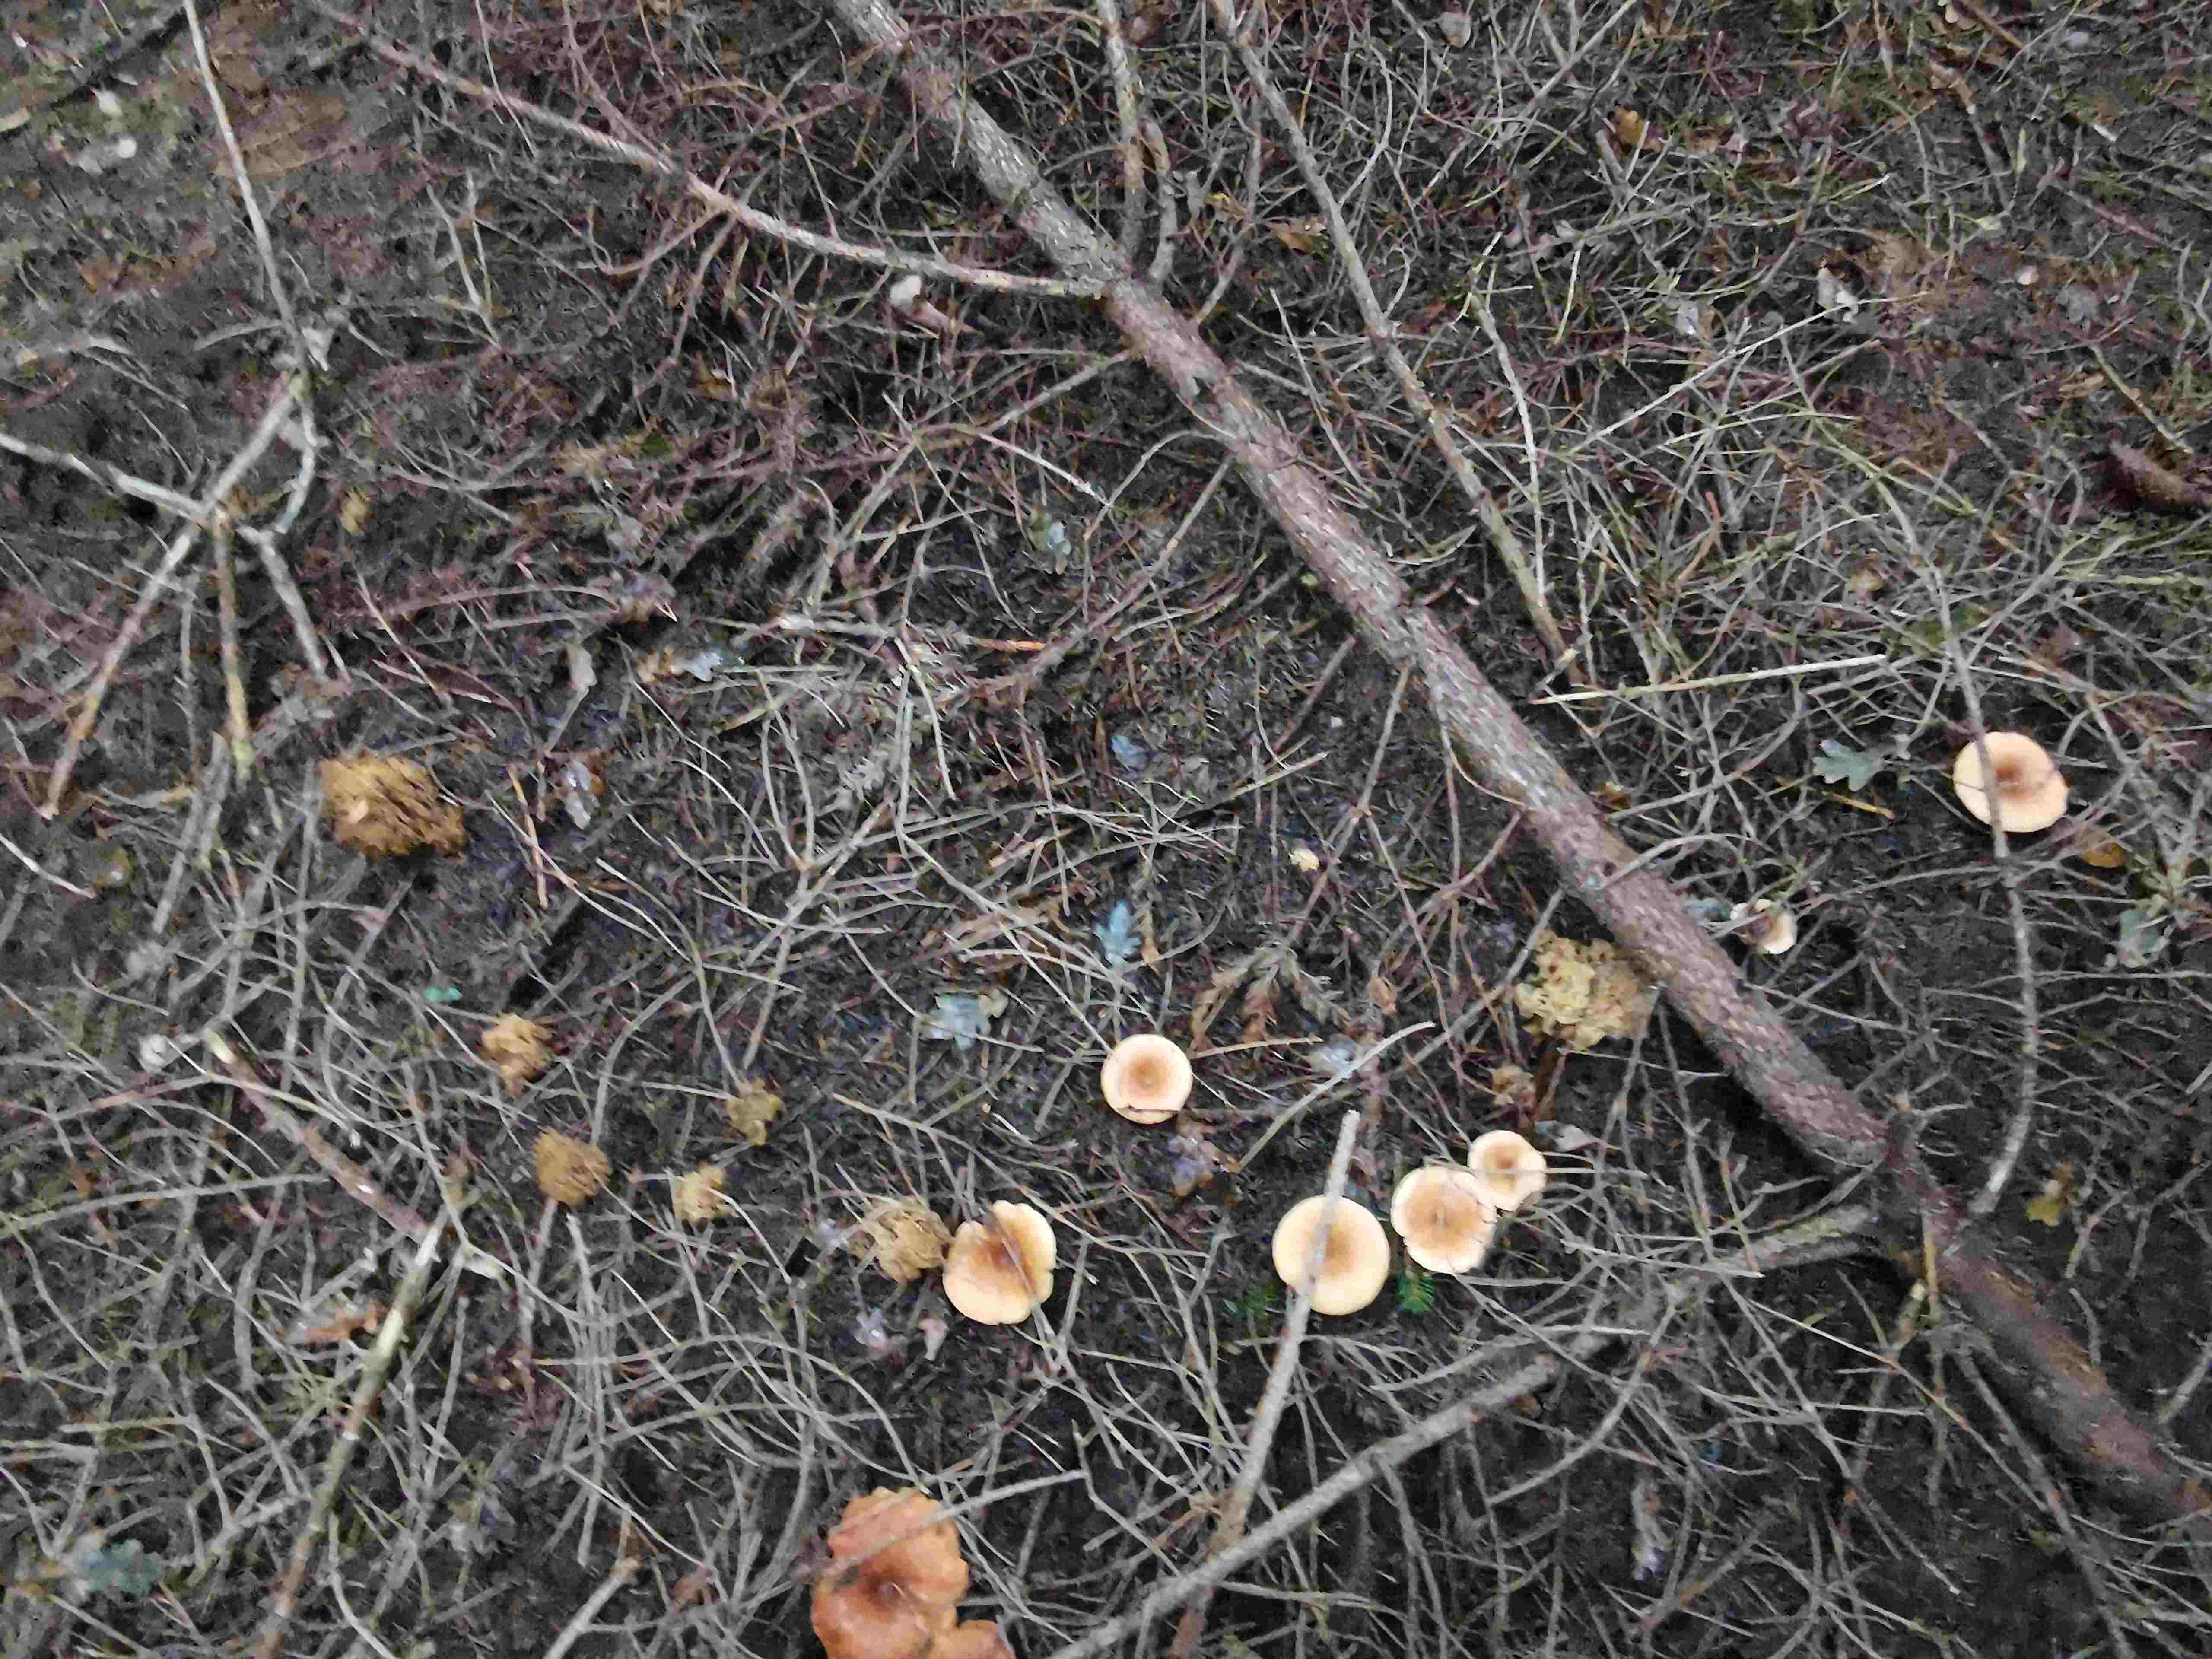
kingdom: Fungi
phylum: Basidiomycota
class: Agaricomycetes
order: Gomphales
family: Gomphaceae
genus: Phaeoclavulina
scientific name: Phaeoclavulina eumorpha
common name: gran-koralsvamp
